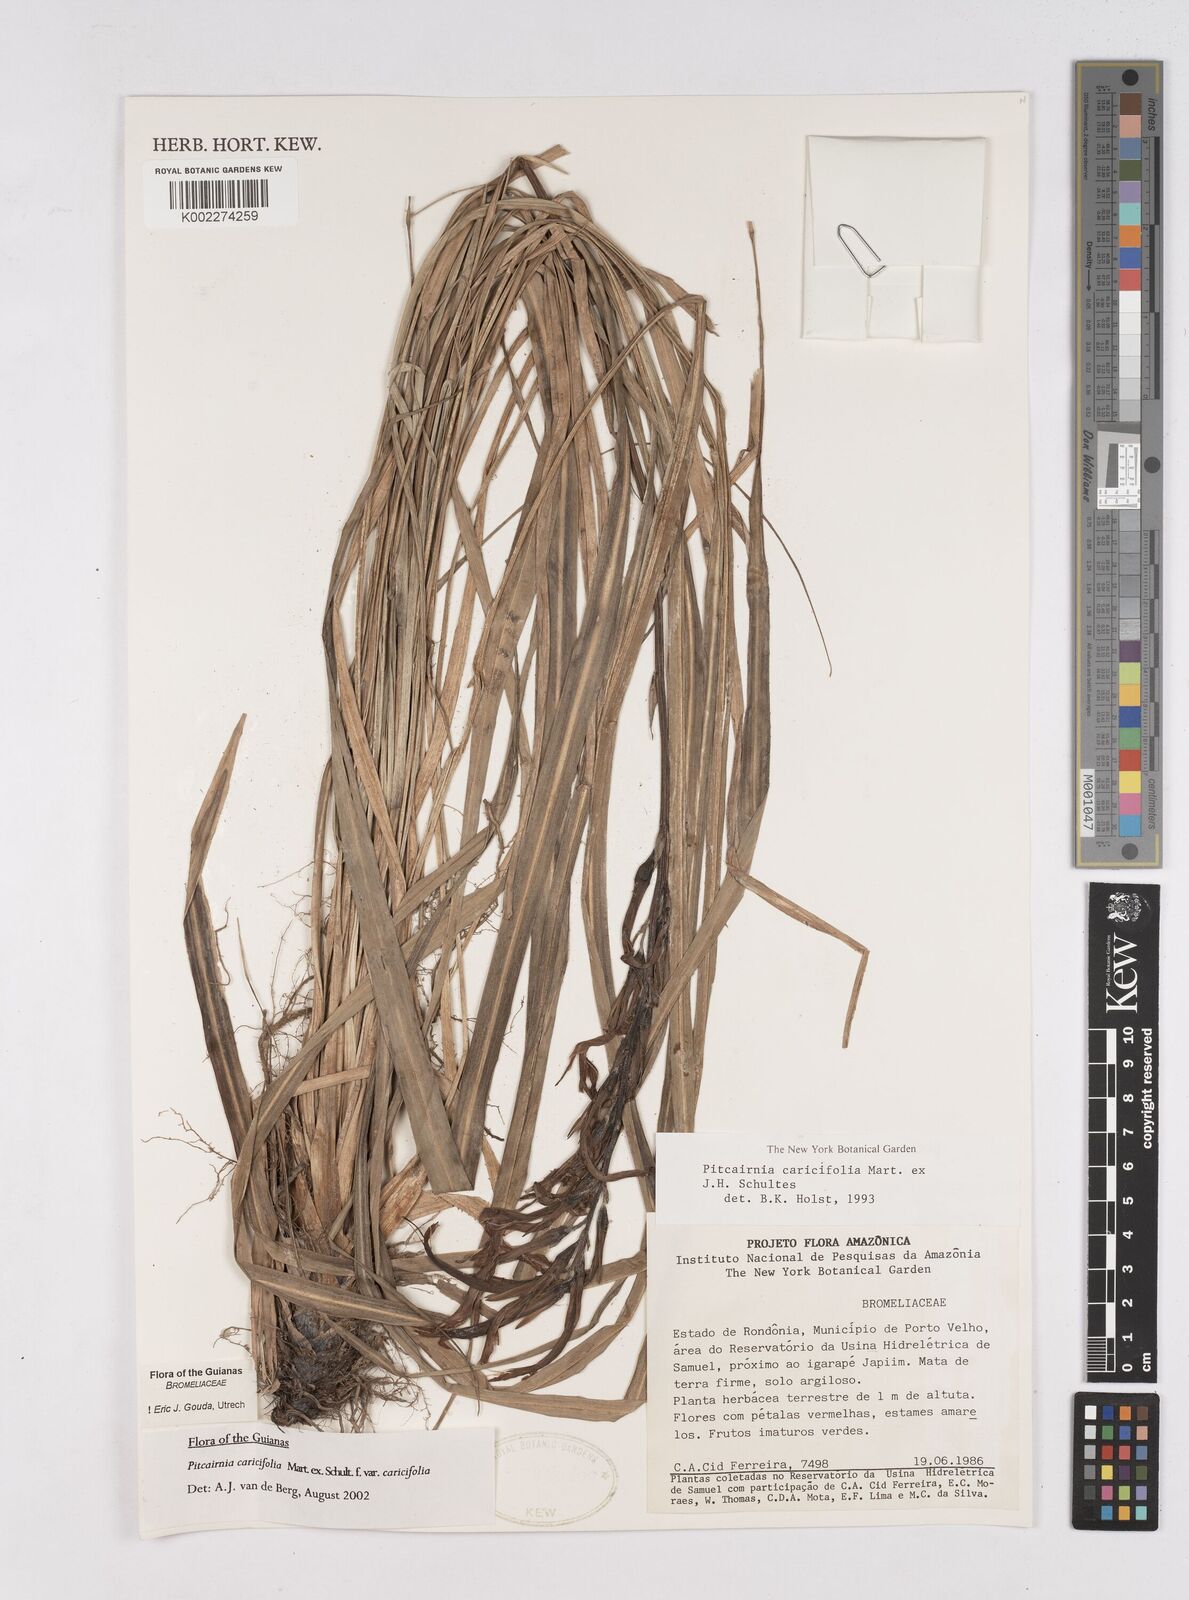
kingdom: Plantae
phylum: Tracheophyta
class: Liliopsida
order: Poales
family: Bromeliaceae
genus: Pitcairnia
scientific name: Pitcairnia caricifolia
